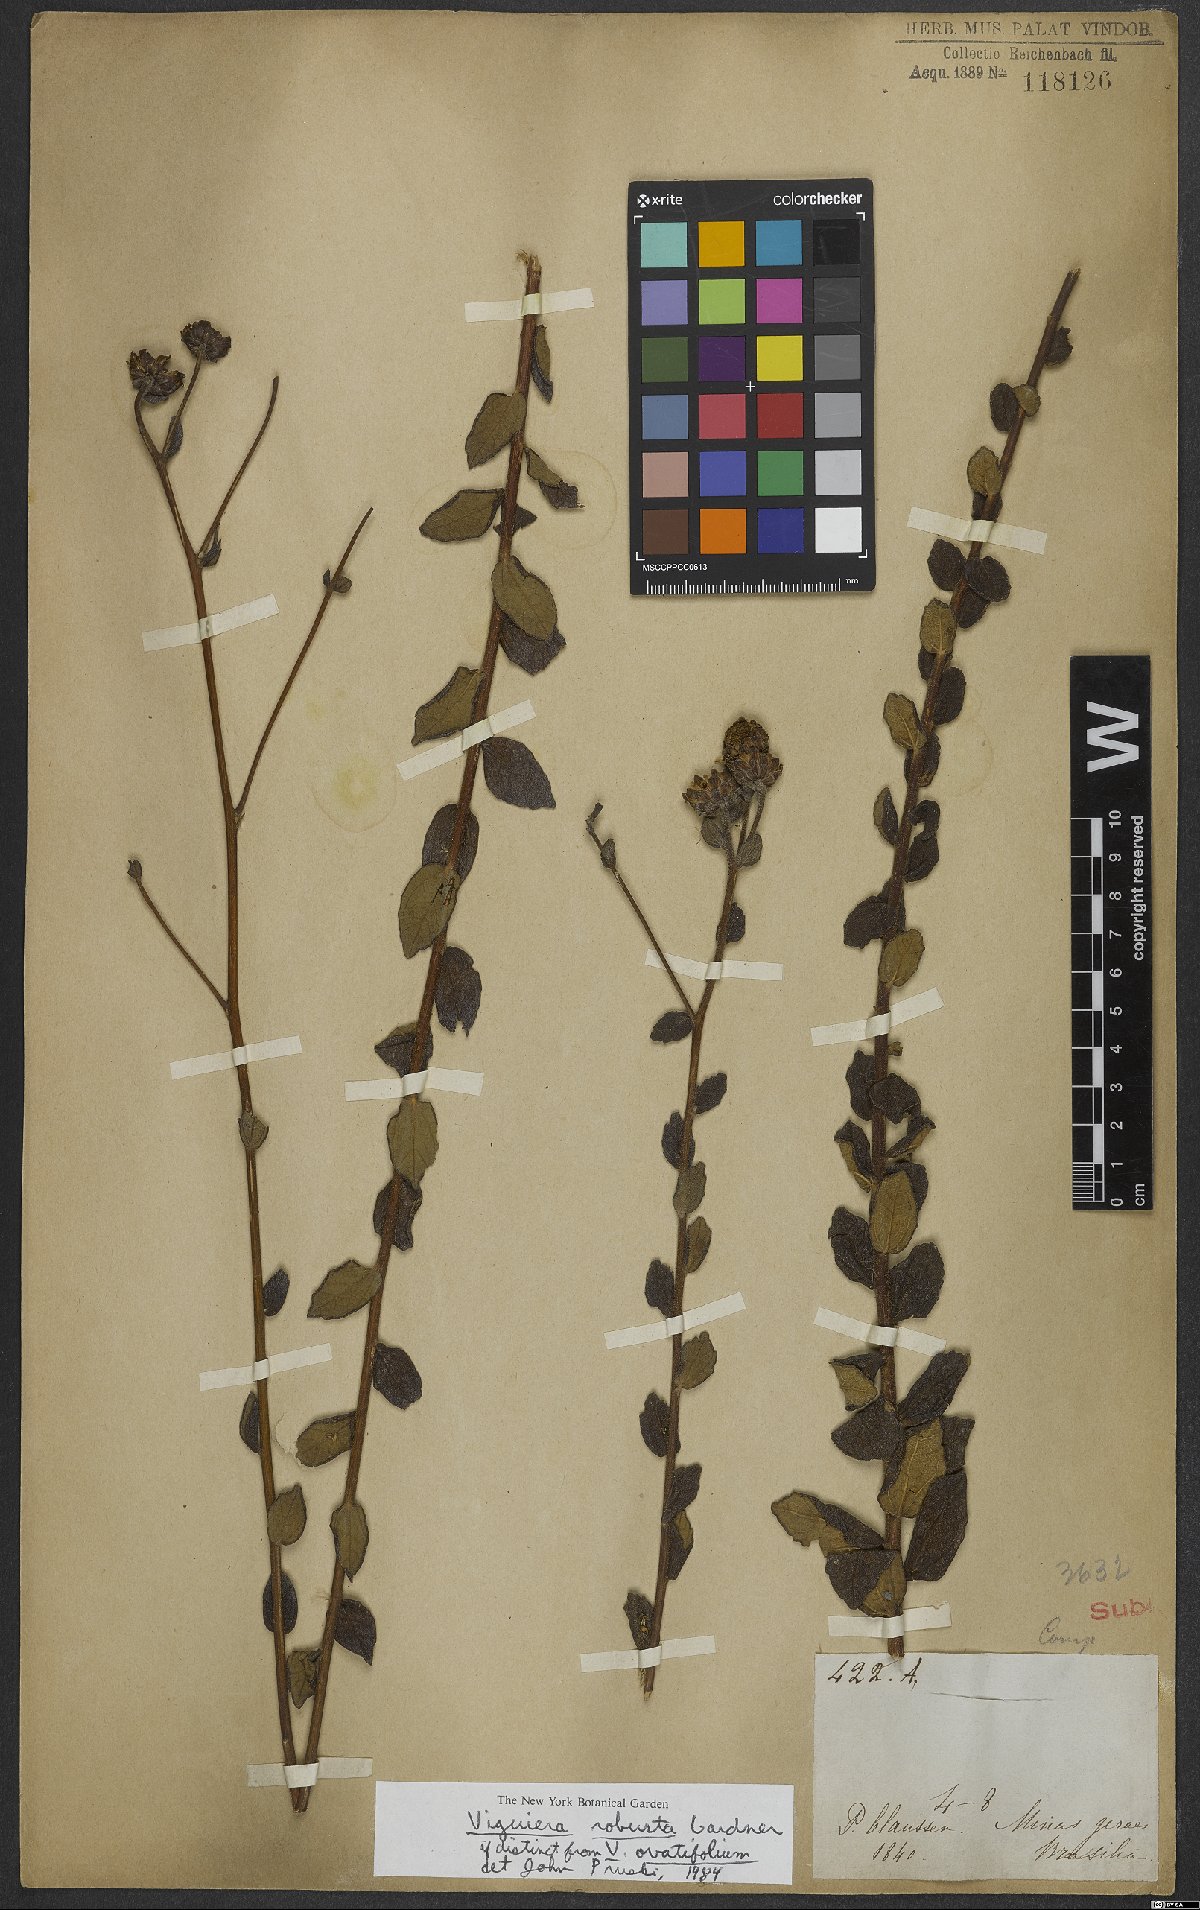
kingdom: Plantae
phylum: Tracheophyta
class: Magnoliopsida
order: Asterales
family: Asteraceae
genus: Aldama
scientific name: Aldama robusta
